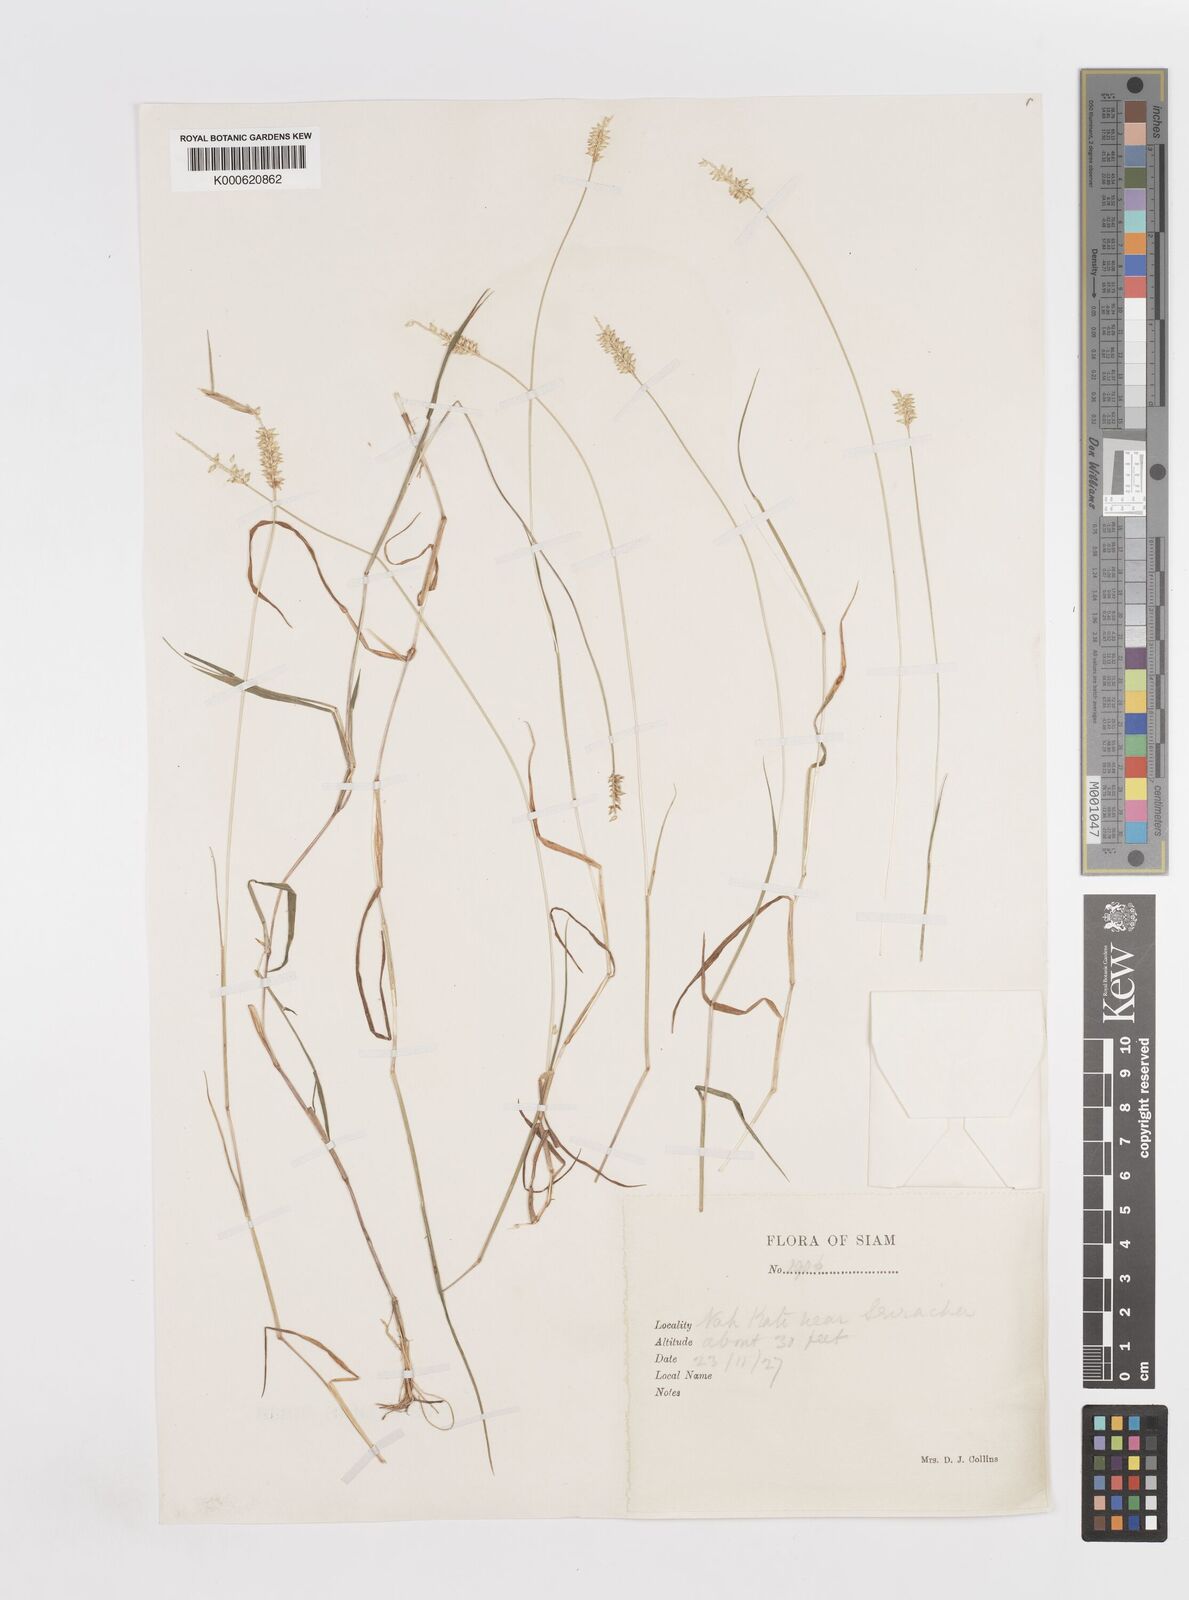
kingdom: Plantae
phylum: Tracheophyta
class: Liliopsida
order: Poales
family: Poaceae
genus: Sacciolepis
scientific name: Sacciolepis indica
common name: Glenwoodgrass
